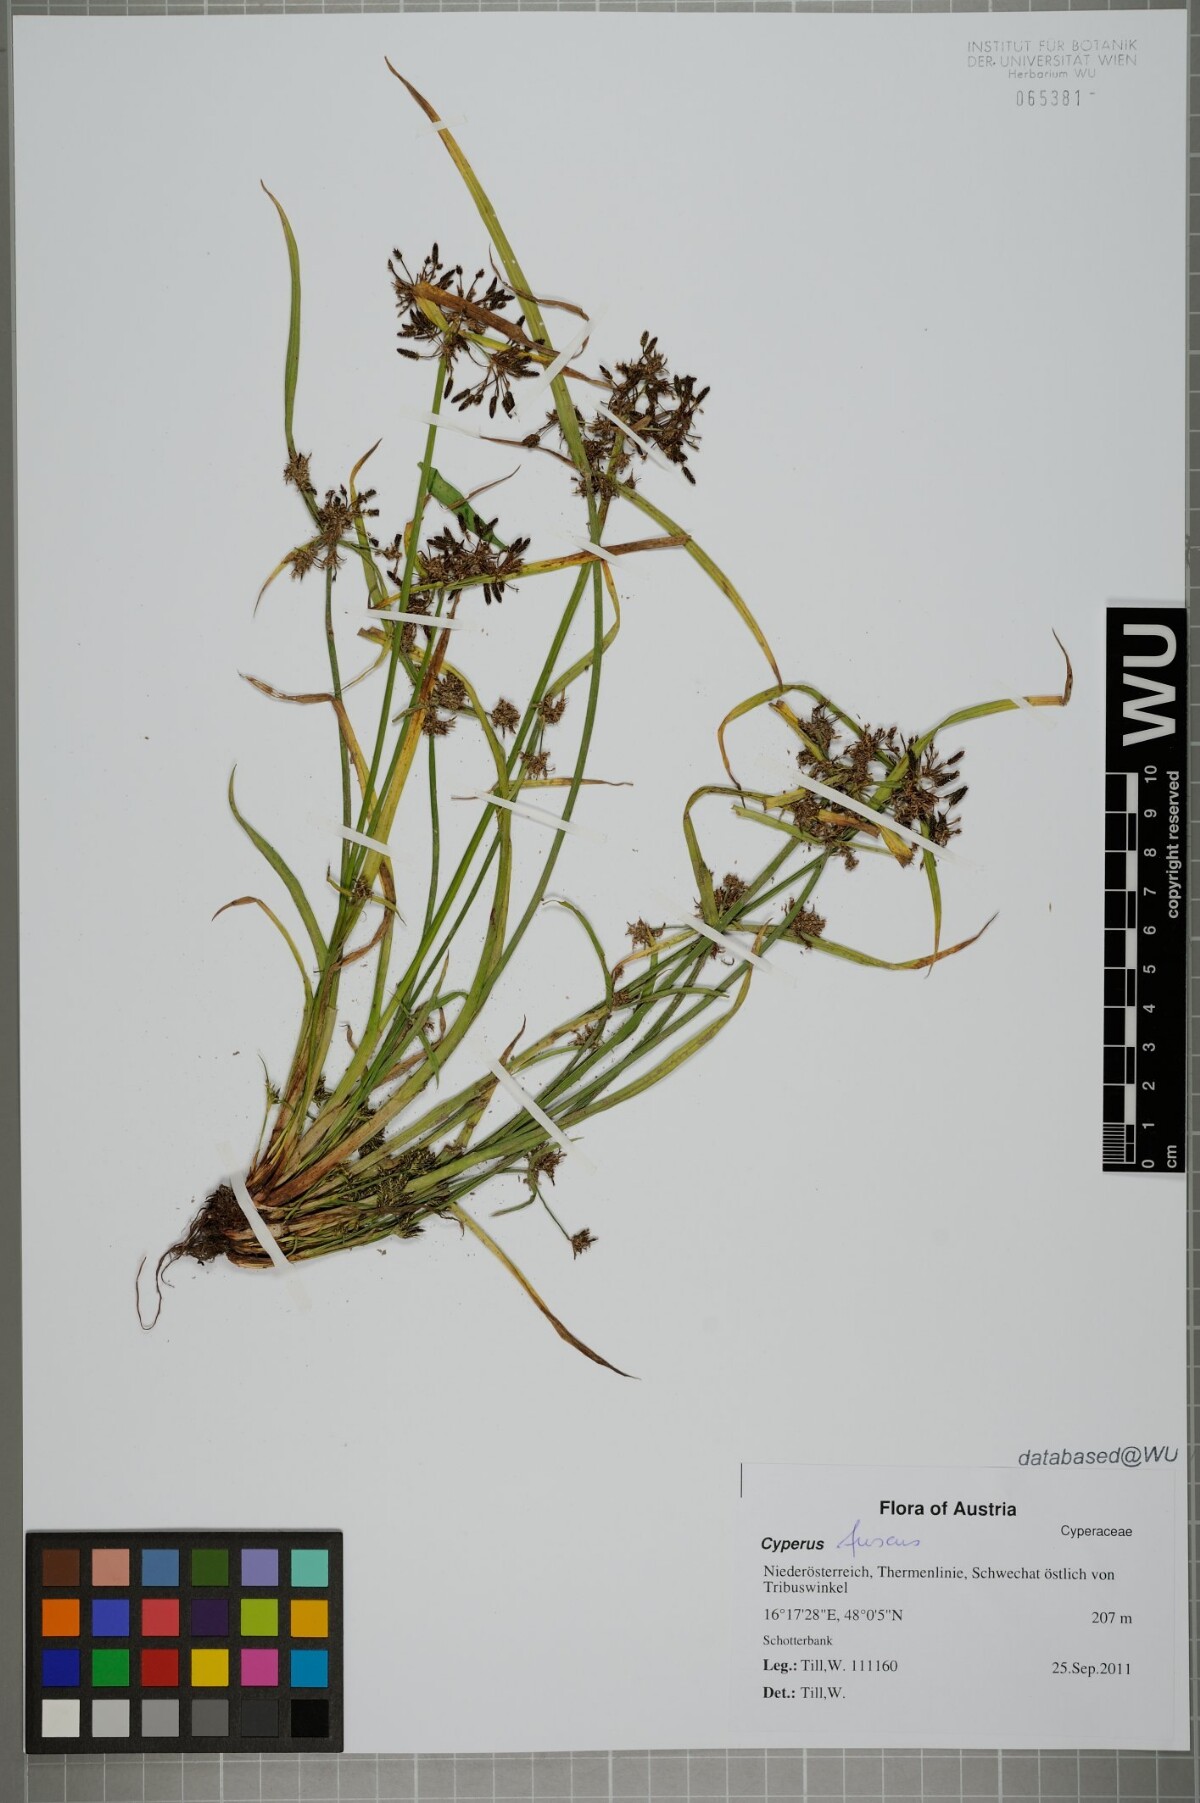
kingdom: Plantae
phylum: Tracheophyta
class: Liliopsida
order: Poales
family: Cyperaceae
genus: Cyperus
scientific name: Cyperus fuscus
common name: Brown galingale
